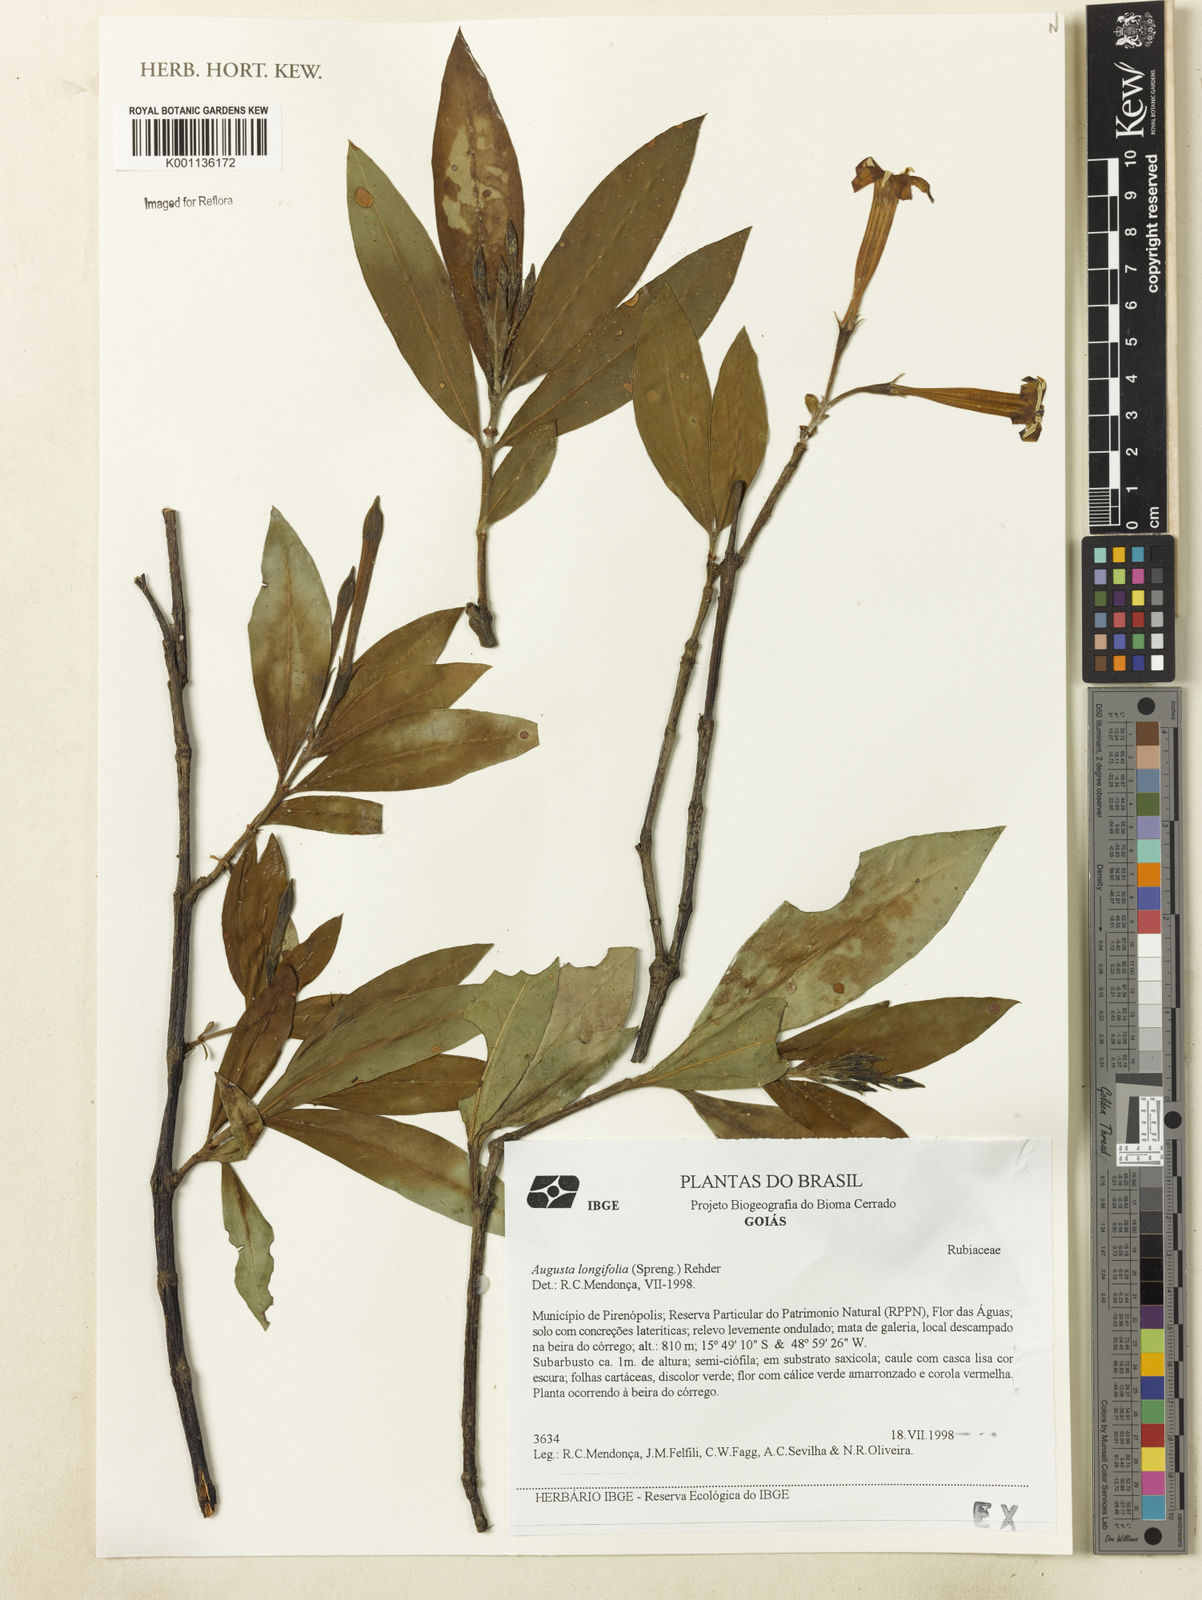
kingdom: Plantae
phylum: Tracheophyta
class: Magnoliopsida
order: Gentianales
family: Rubiaceae
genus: Augusta
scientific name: Augusta longifolia
